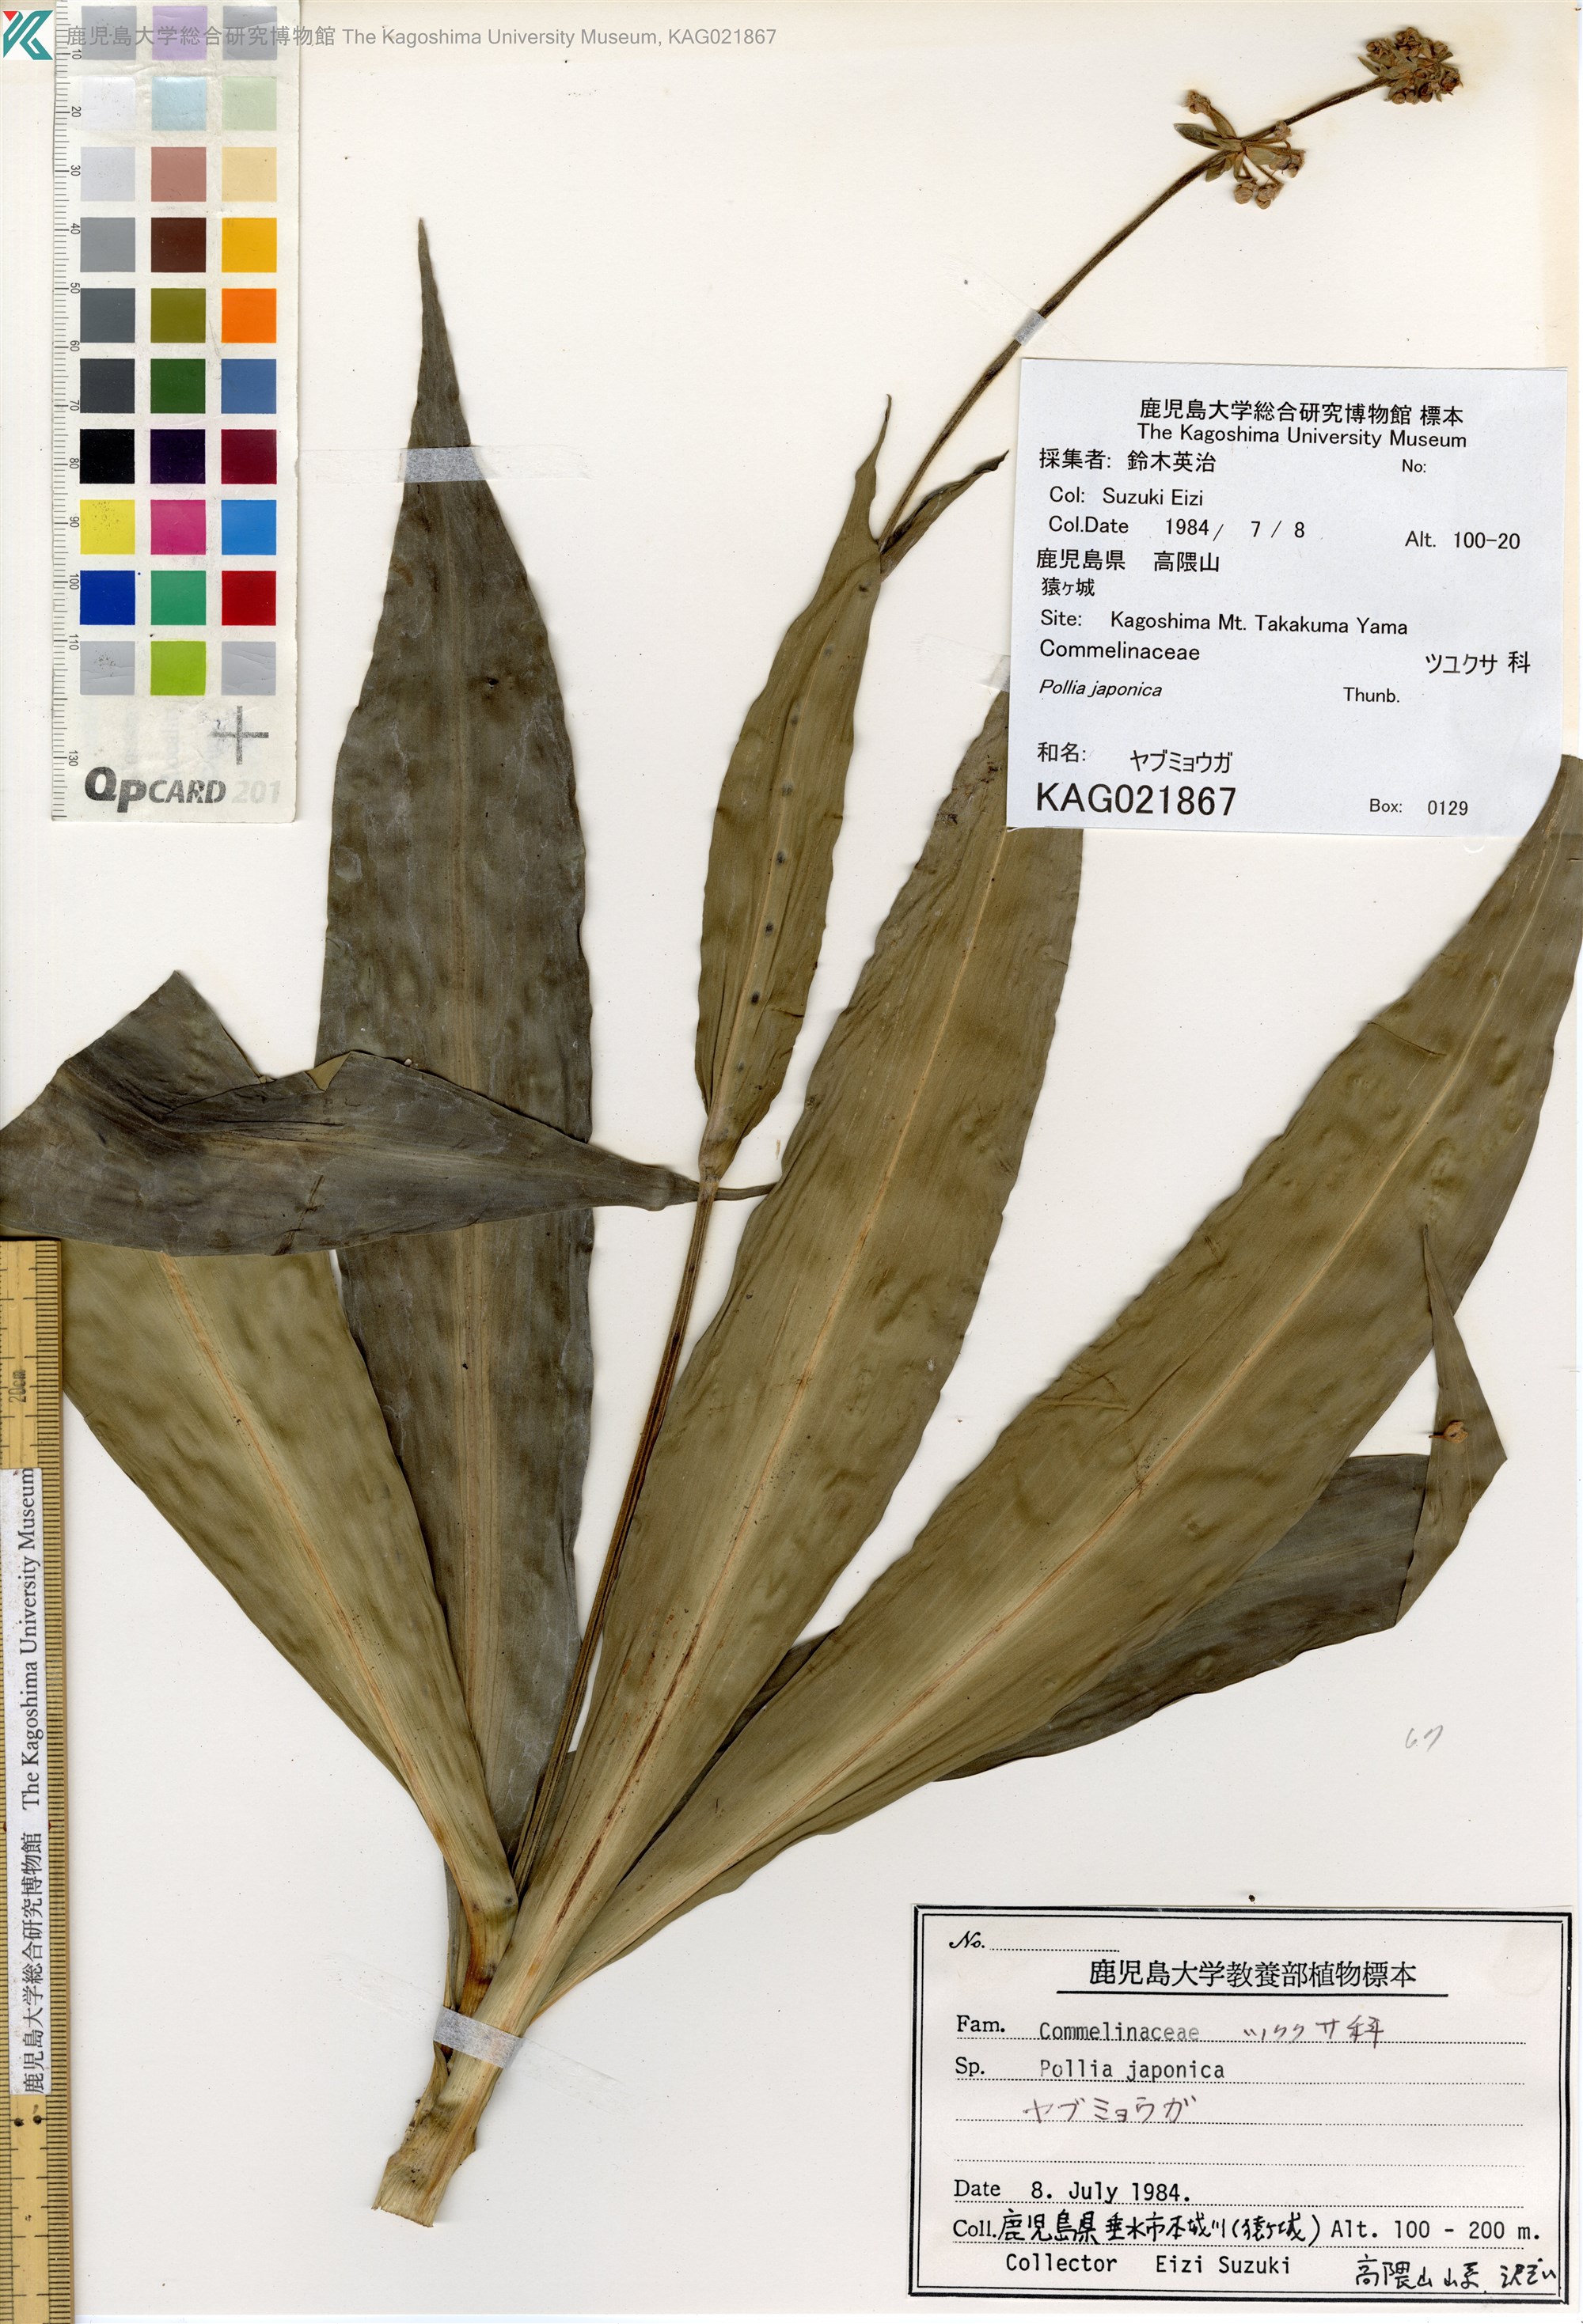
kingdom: Plantae
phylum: Tracheophyta
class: Liliopsida
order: Commelinales
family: Commelinaceae
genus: Pollia
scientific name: Pollia japonica
